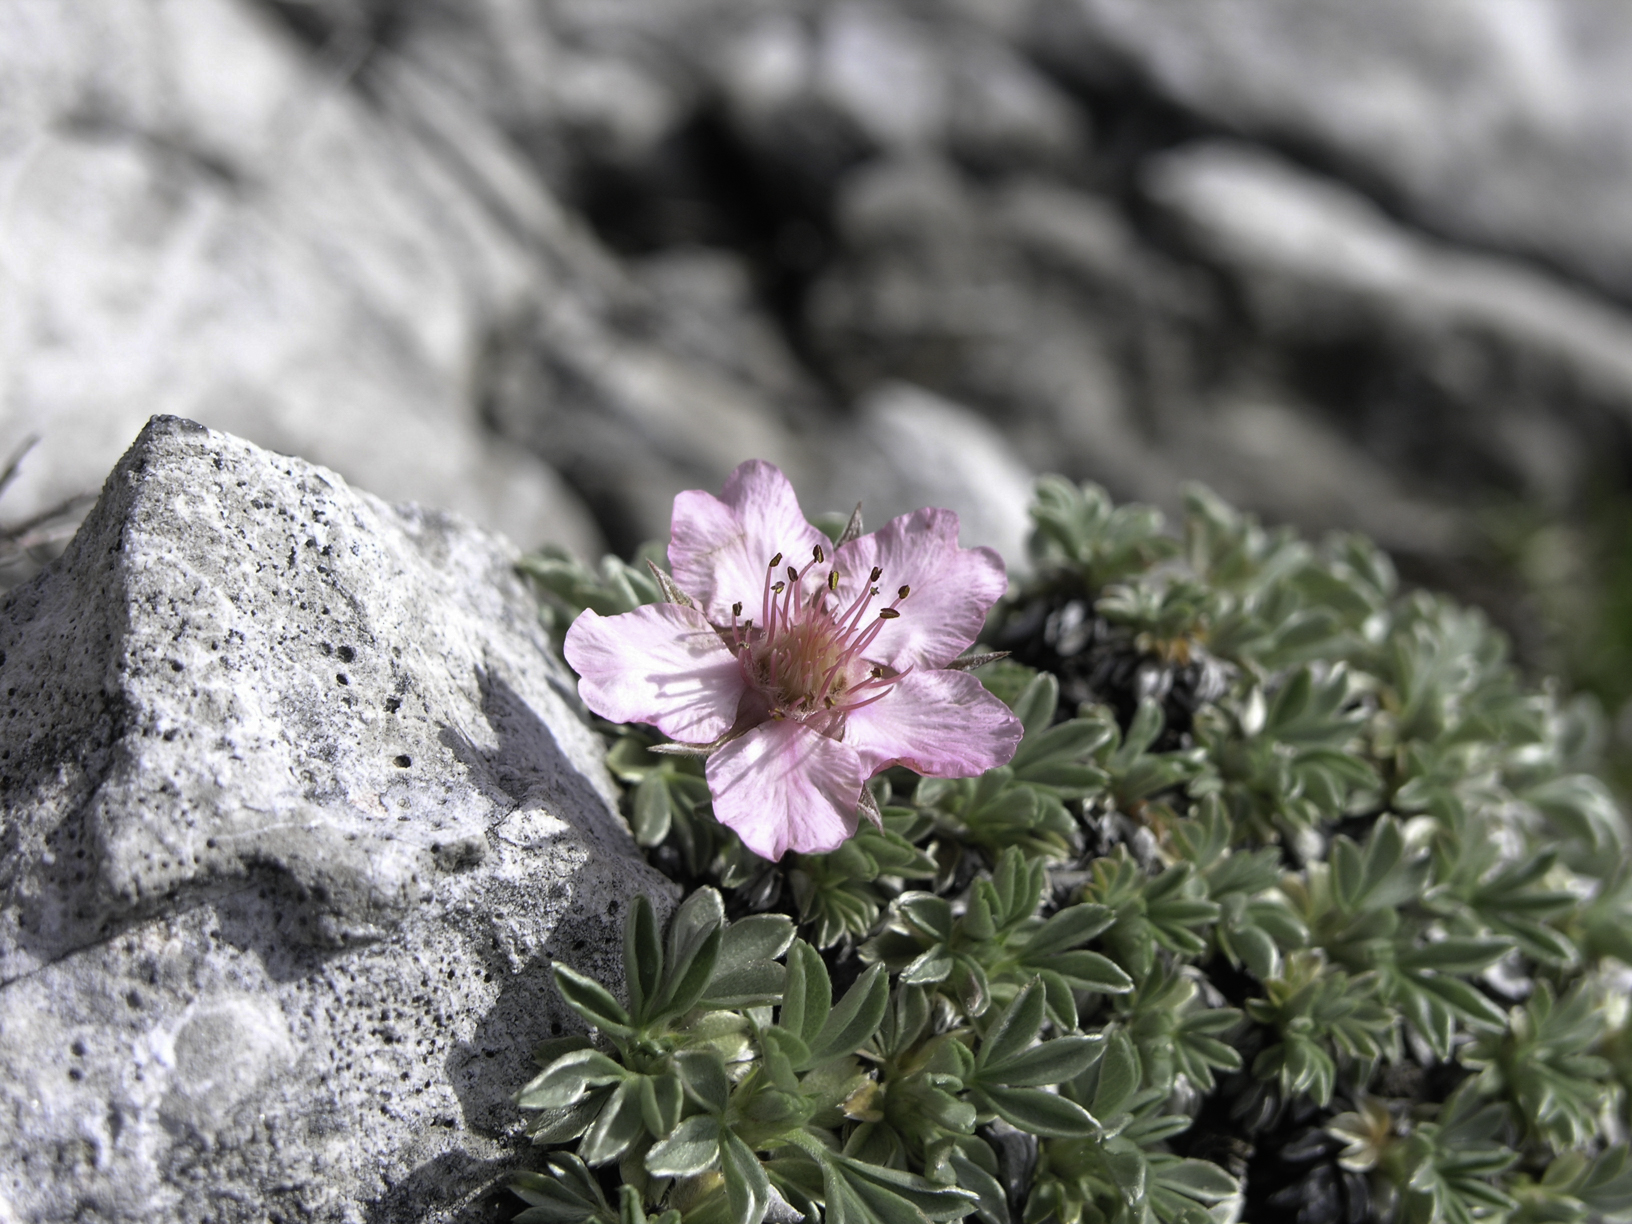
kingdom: Plantae
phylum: Tracheophyta
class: Magnoliopsida
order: Rosales
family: Rosaceae
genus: Potentilla
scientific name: Potentilla nitida
